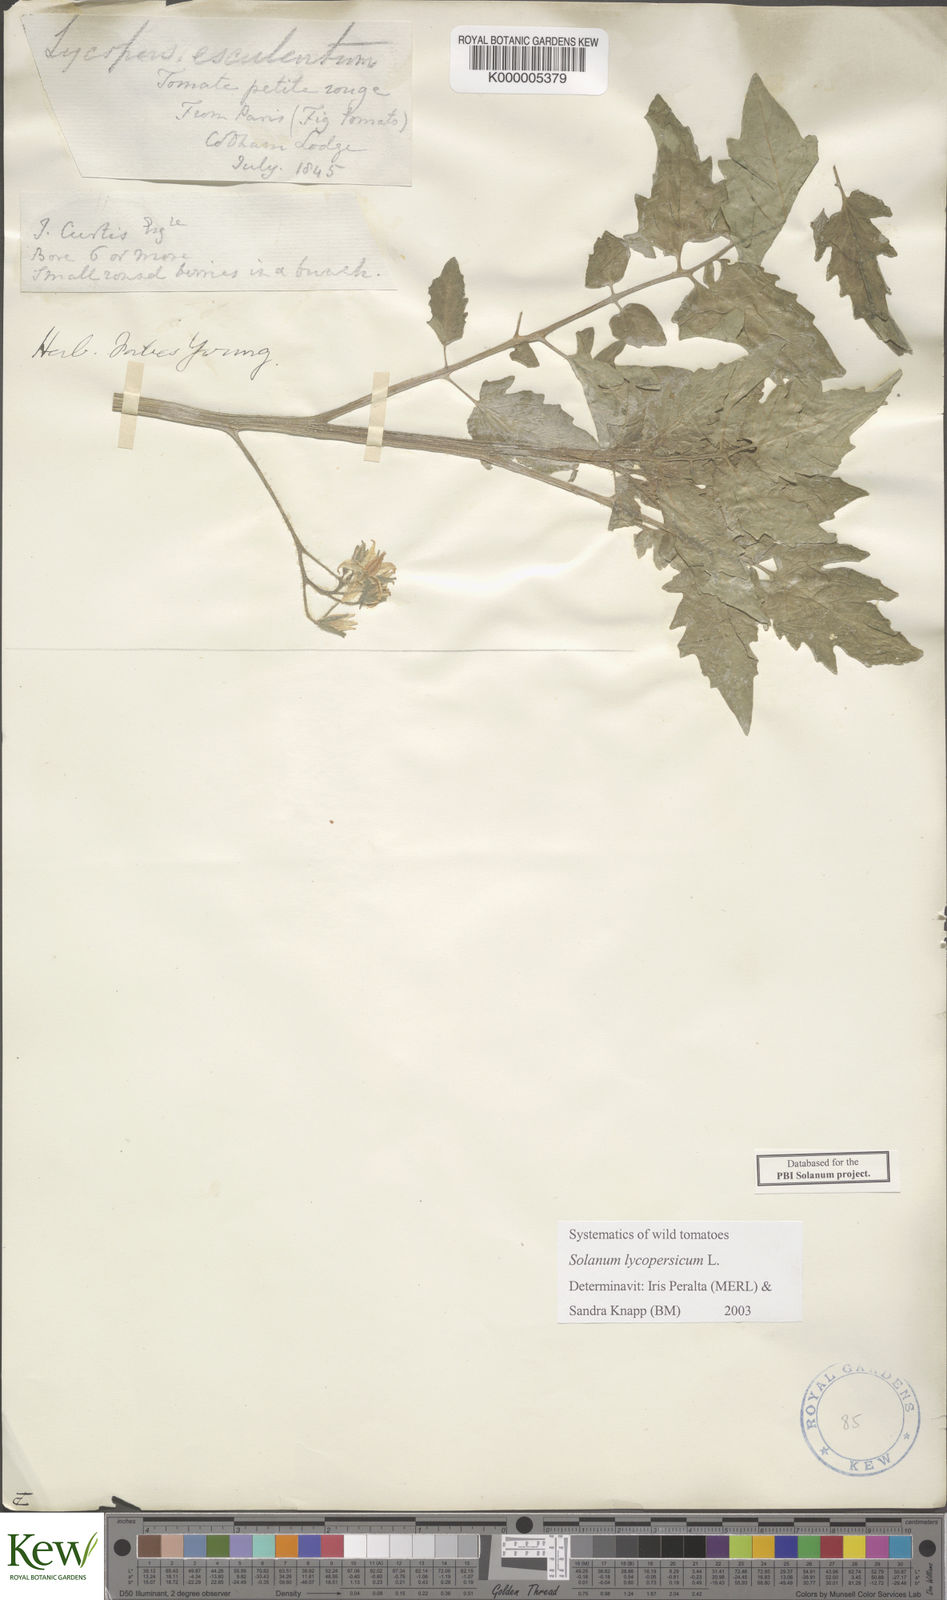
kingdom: Plantae
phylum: Tracheophyta
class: Magnoliopsida
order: Solanales
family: Solanaceae
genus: Solanum
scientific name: Solanum lycopersicum
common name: Garden tomato
